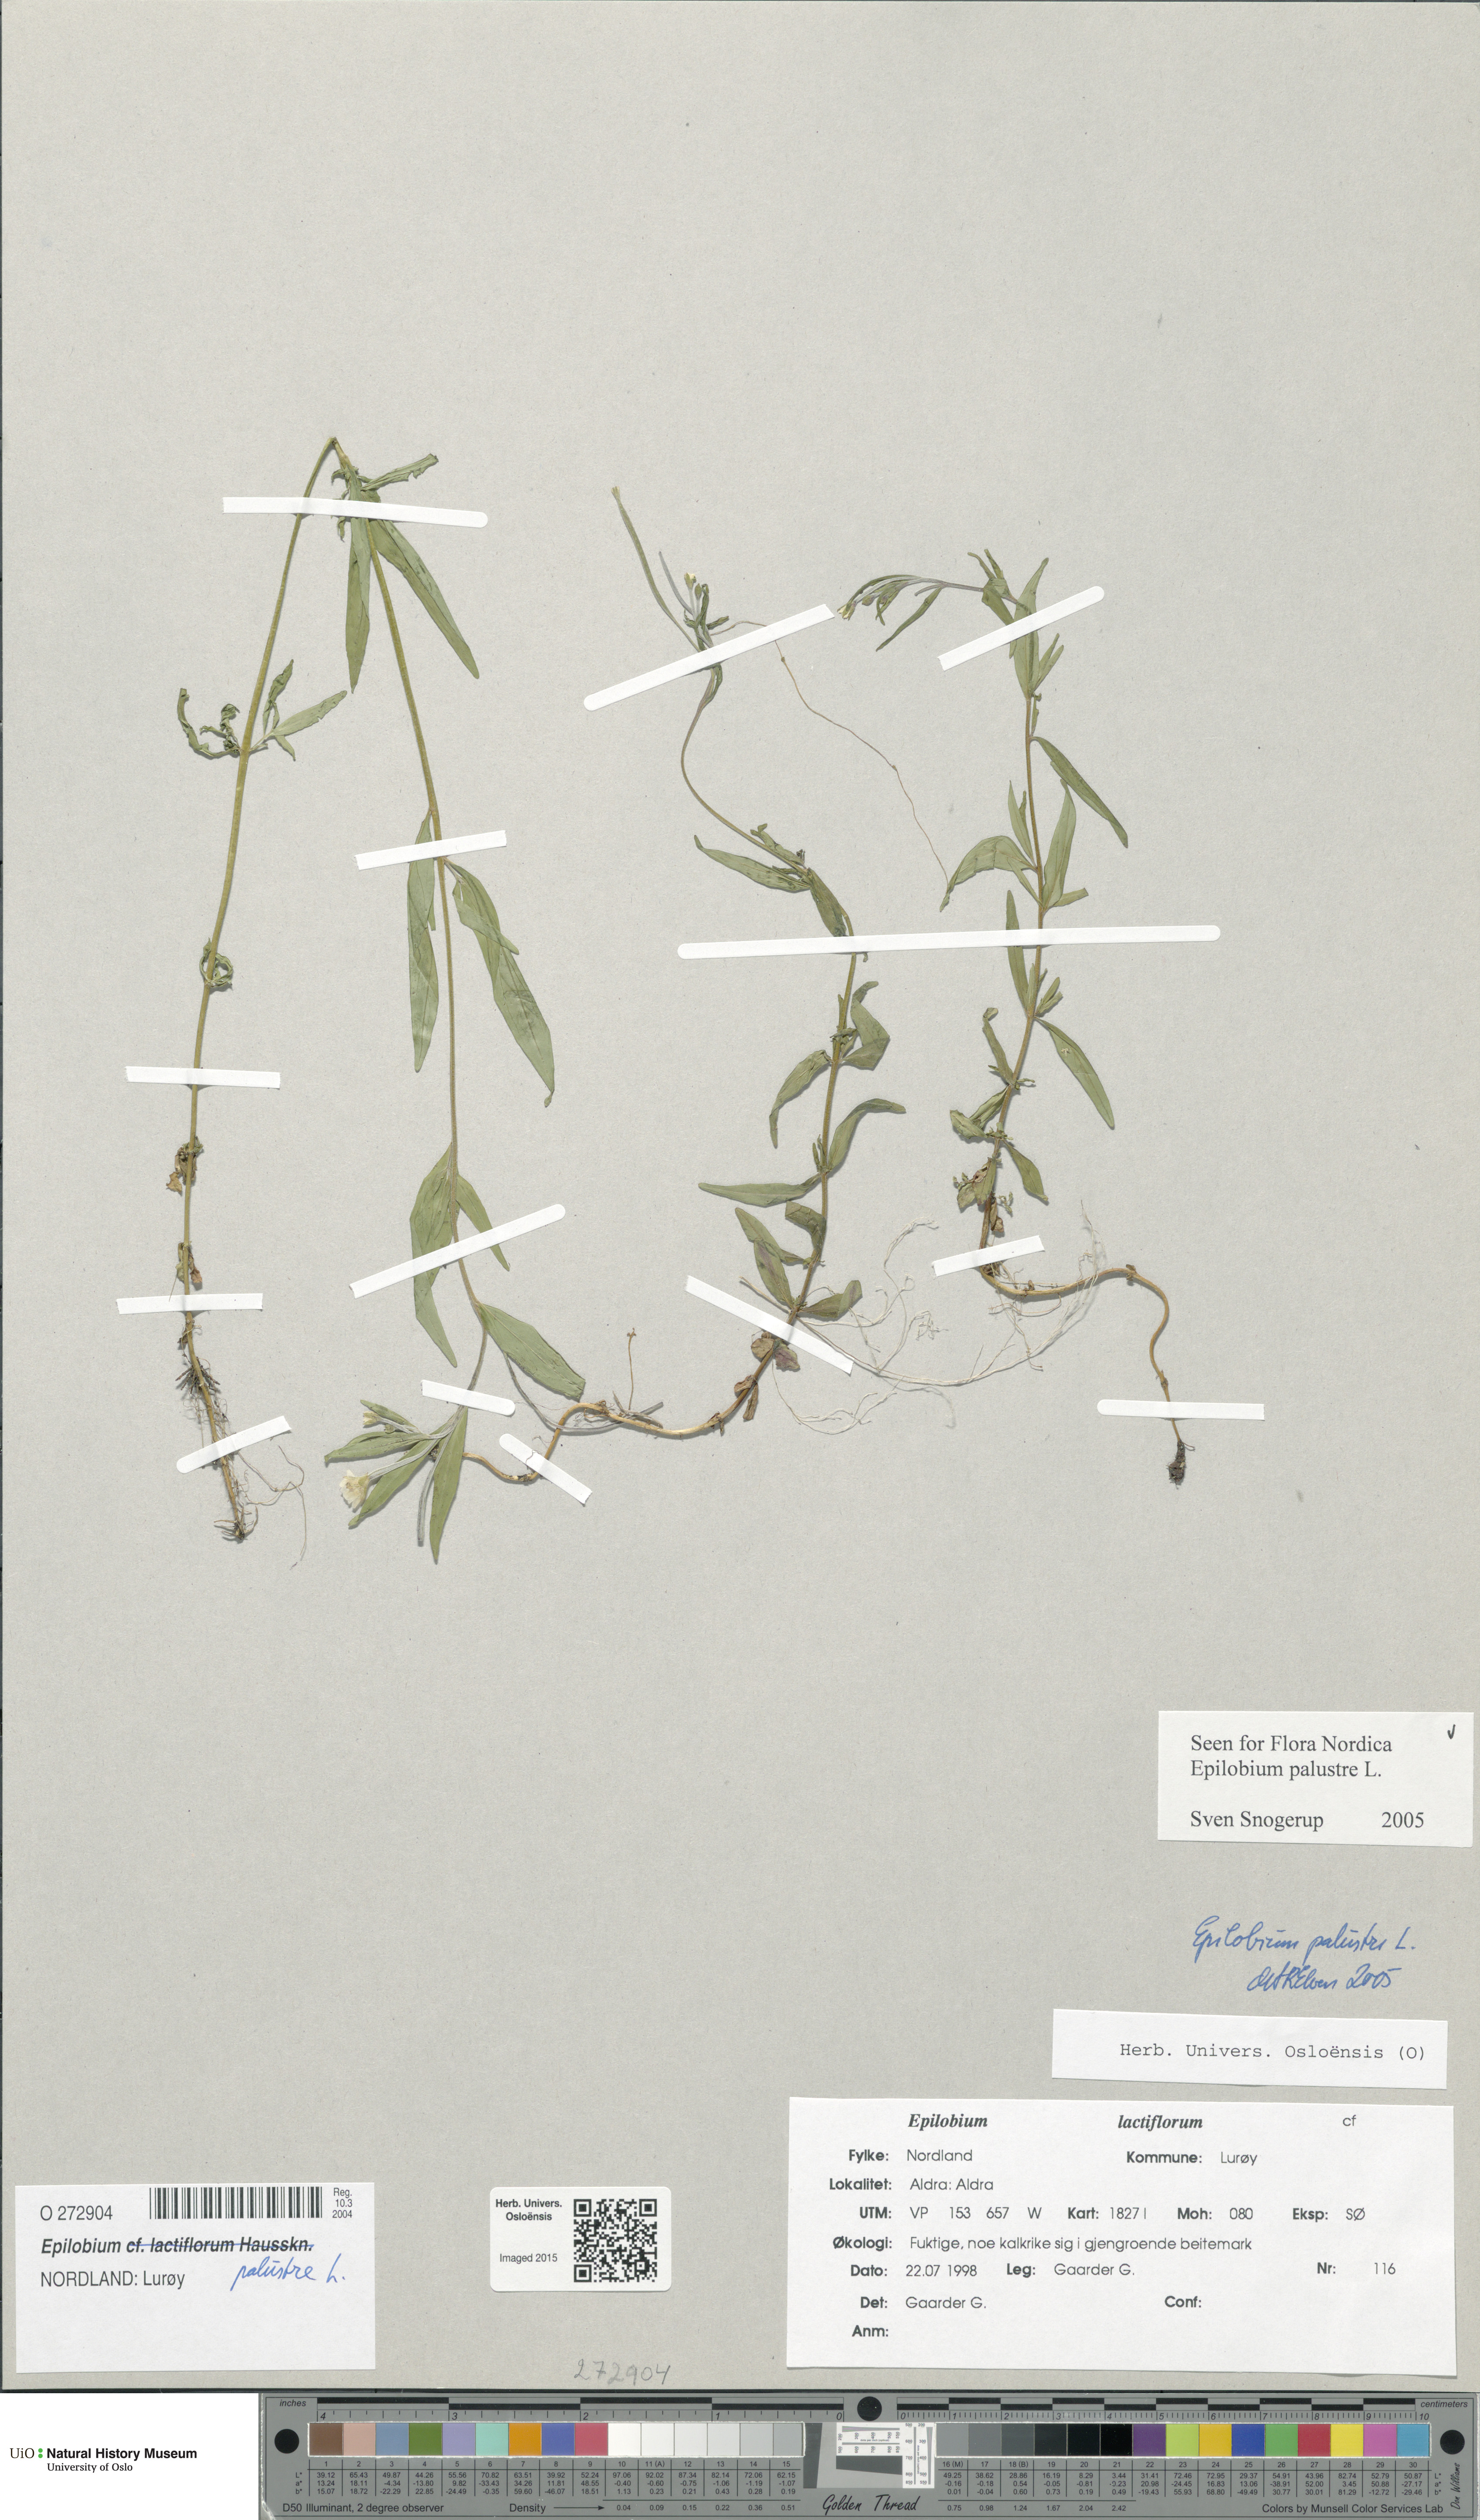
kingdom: Plantae
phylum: Tracheophyta
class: Magnoliopsida
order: Myrtales
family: Onagraceae
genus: Epilobium
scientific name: Epilobium palustre
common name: Marsh willowherb
